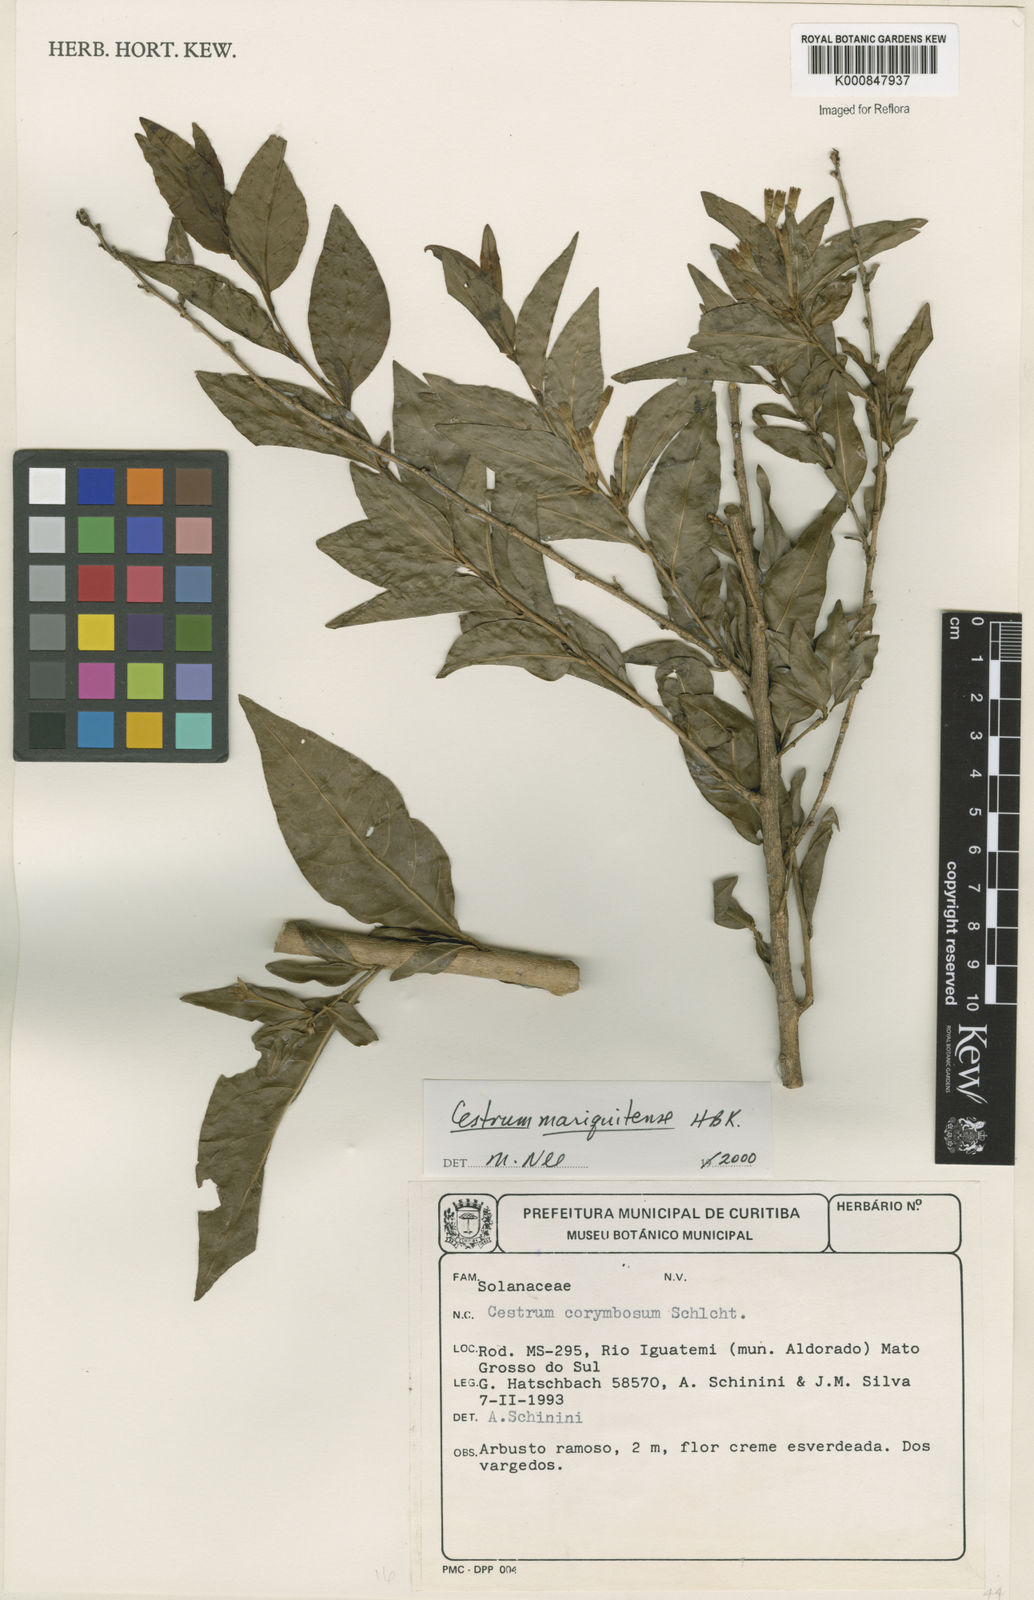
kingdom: Plantae
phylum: Tracheophyta
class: Magnoliopsida
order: Solanales
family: Solanaceae
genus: Cestrum
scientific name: Cestrum mariquitense
